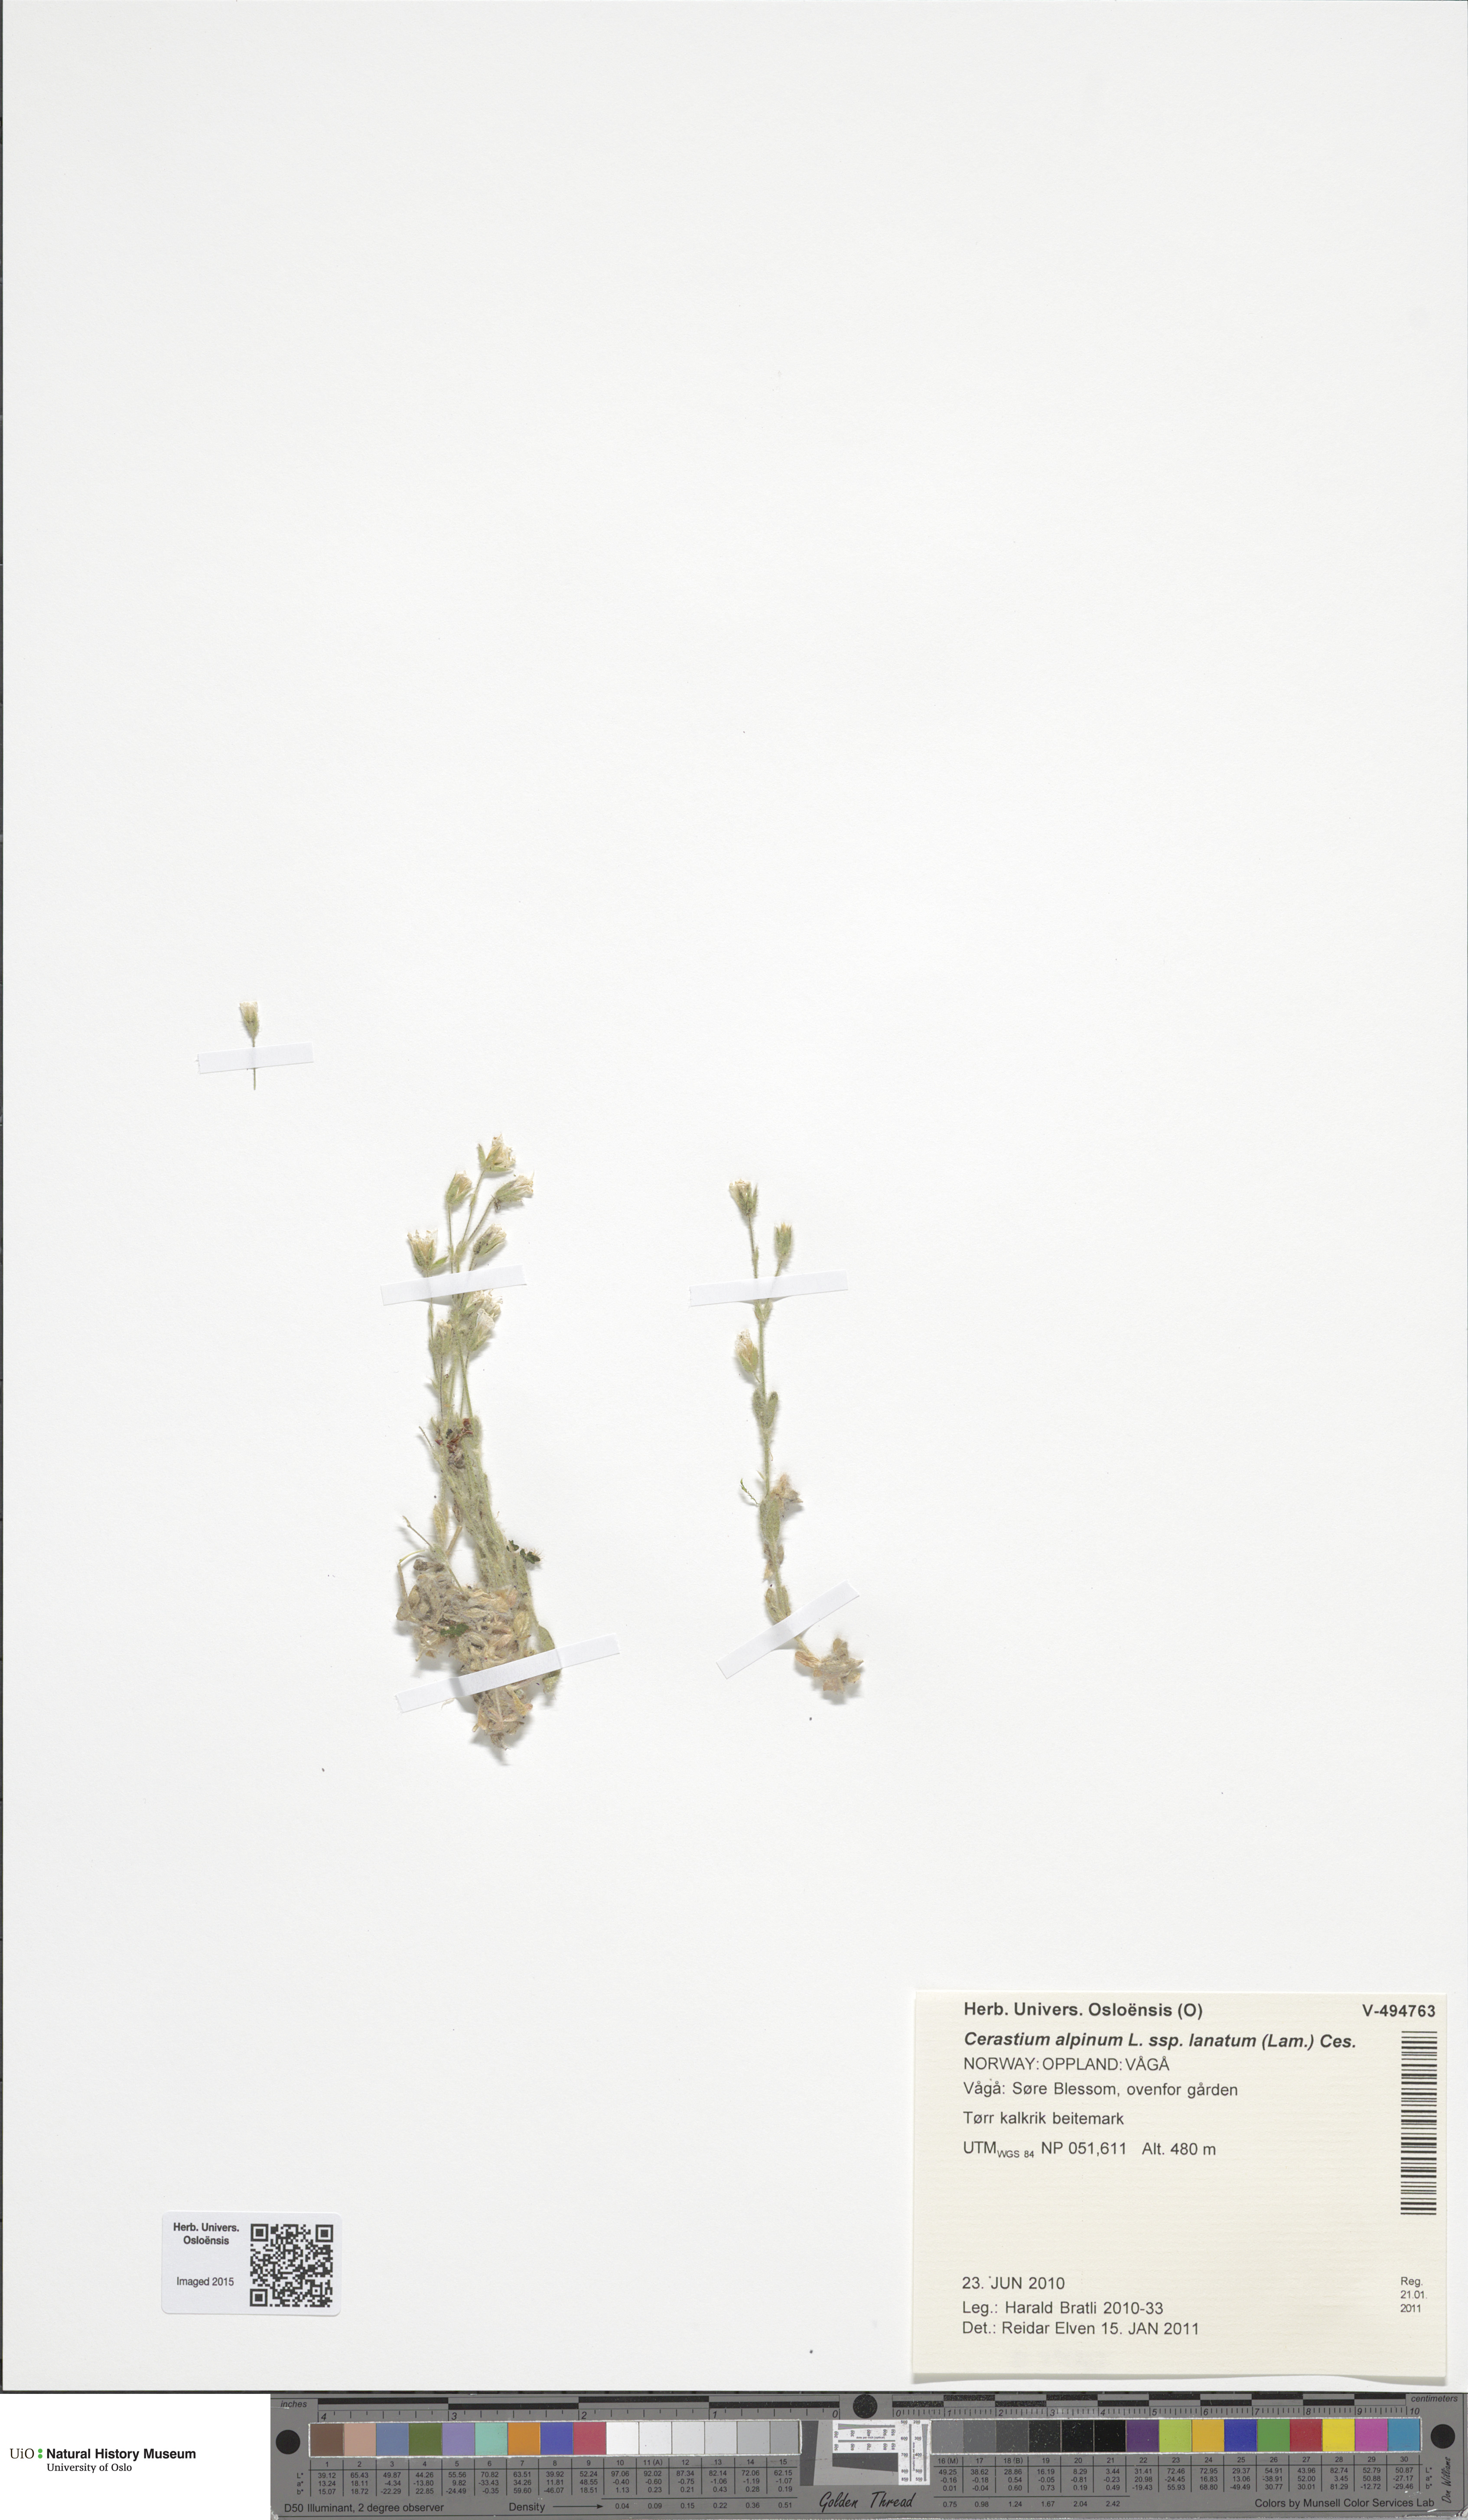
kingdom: Plantae
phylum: Tracheophyta
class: Magnoliopsida
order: Caryophyllales
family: Caryophyllaceae
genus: Cerastium
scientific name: Cerastium alpinum
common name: Alpine mouse-ear
